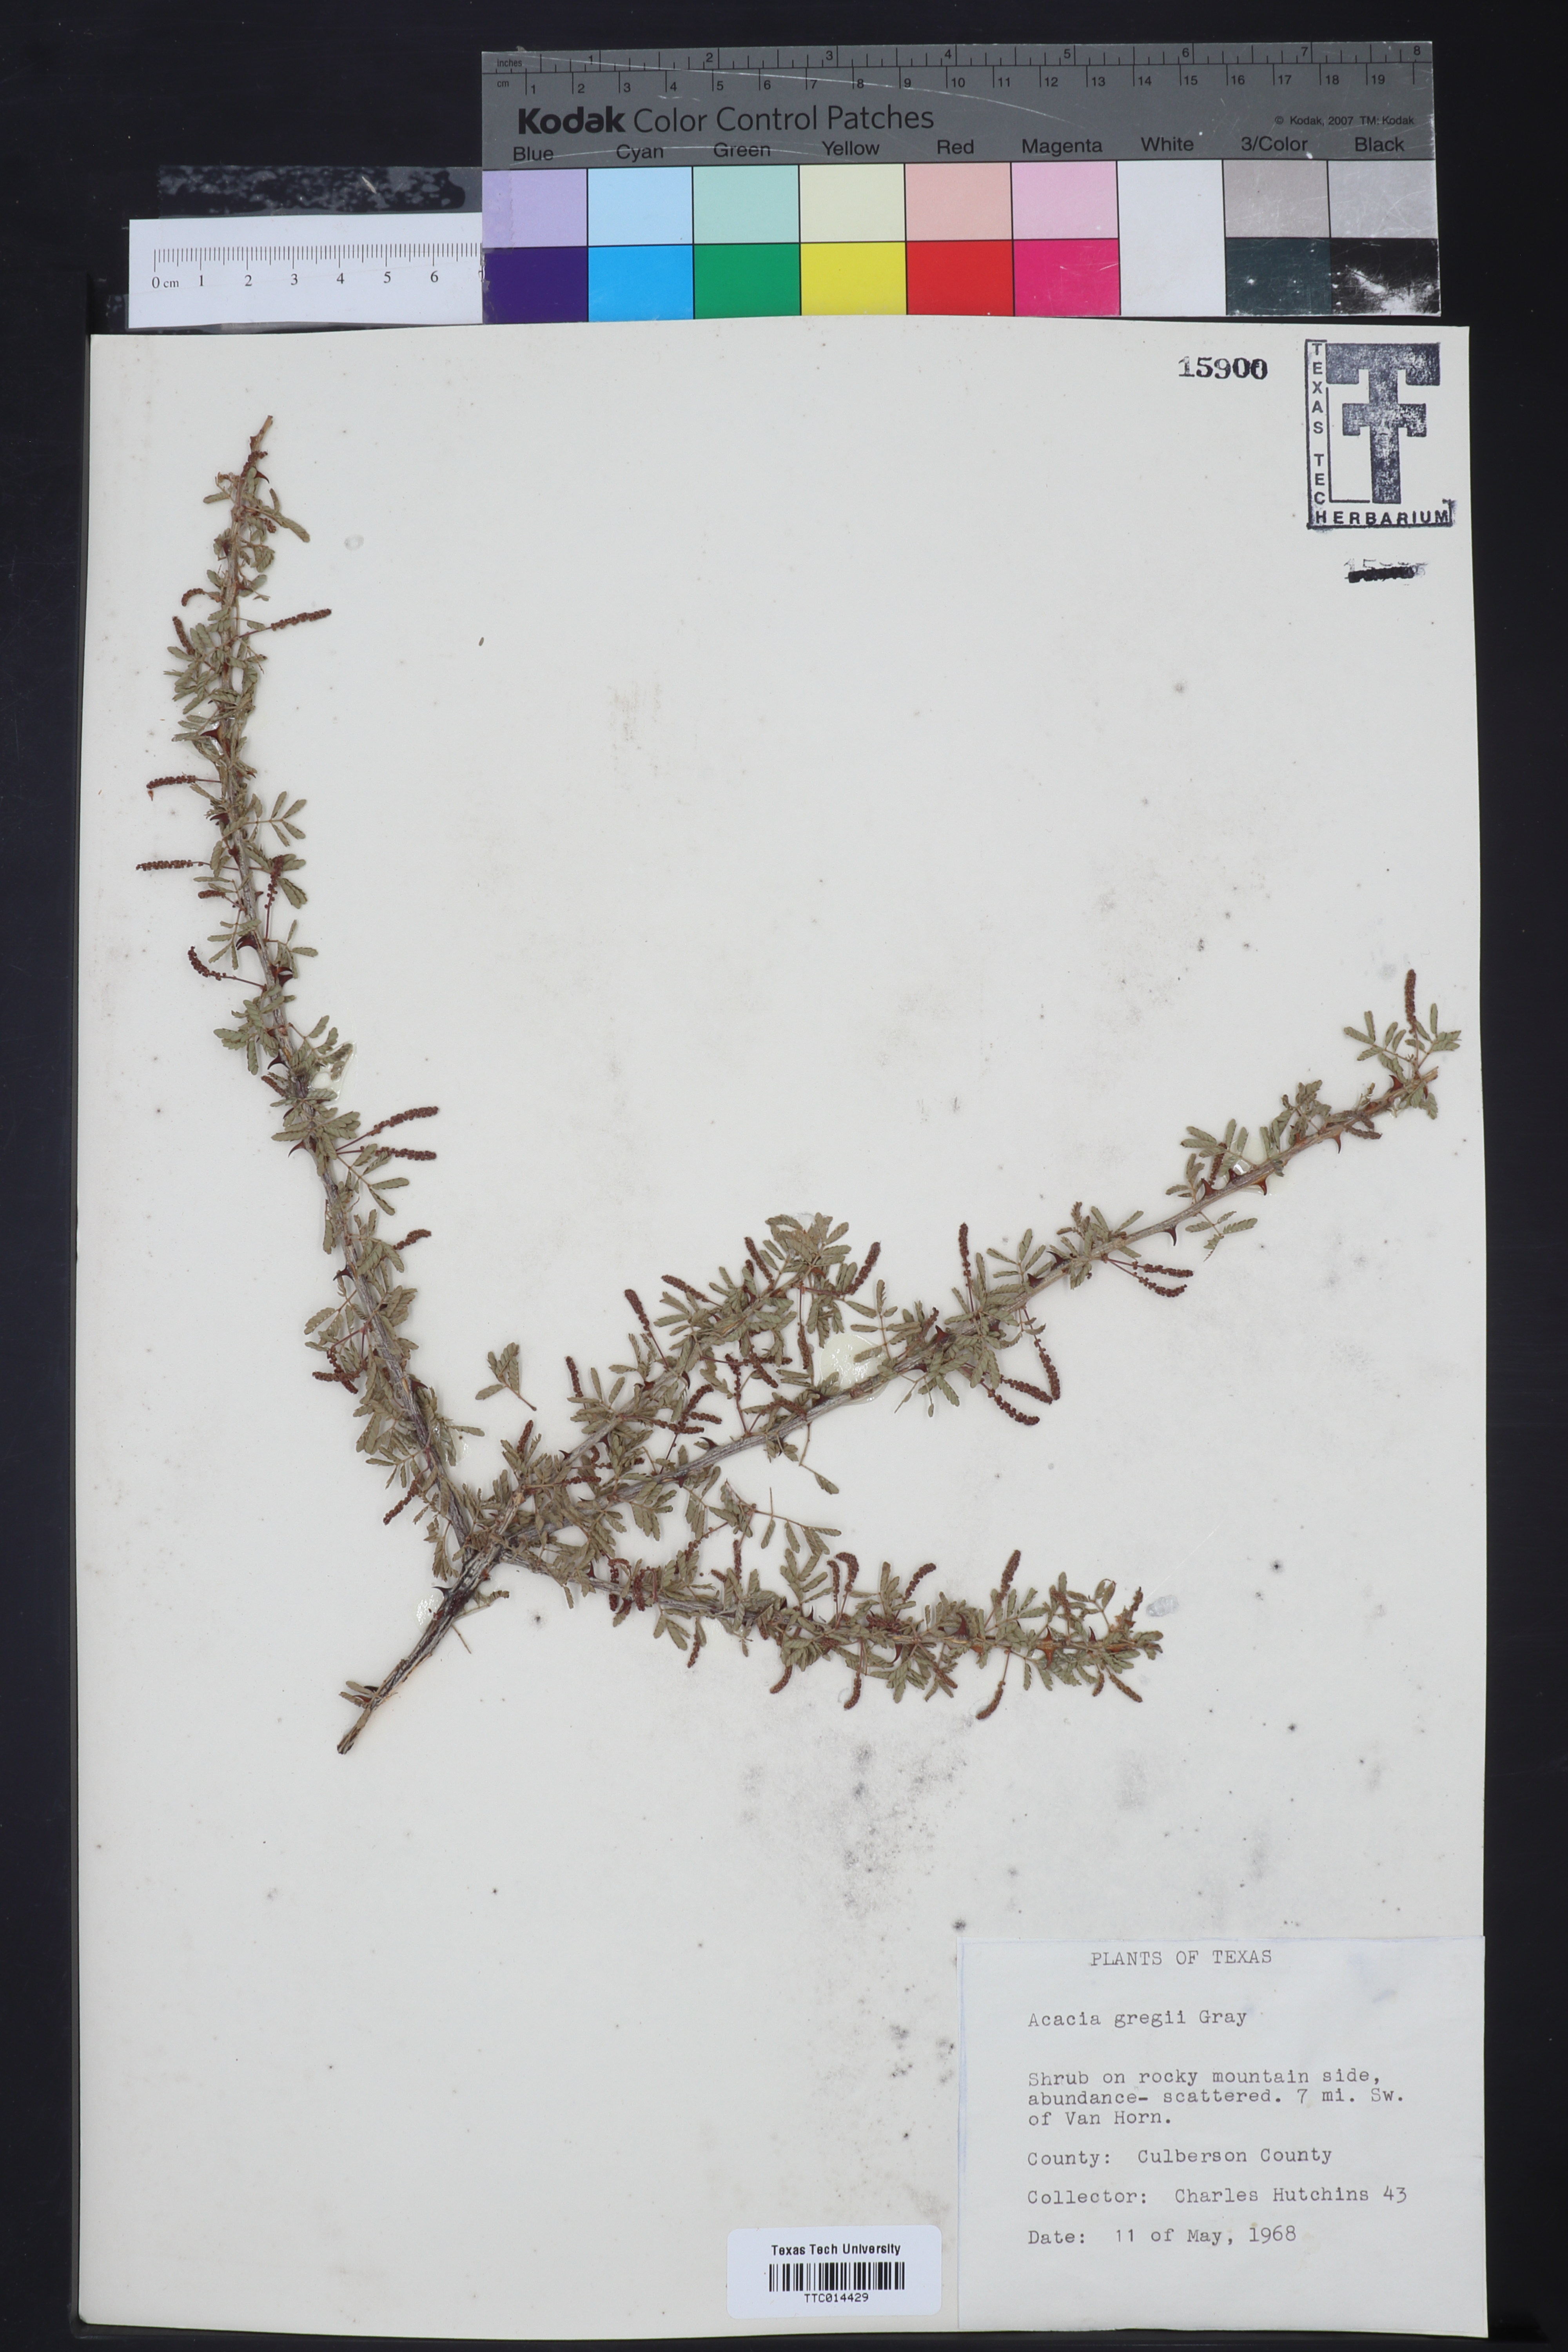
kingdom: Plantae
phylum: Tracheophyta
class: Magnoliopsida
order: Fabales
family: Fabaceae
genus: Senegalia
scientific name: Senegalia greggii
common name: Texas-mimosa
